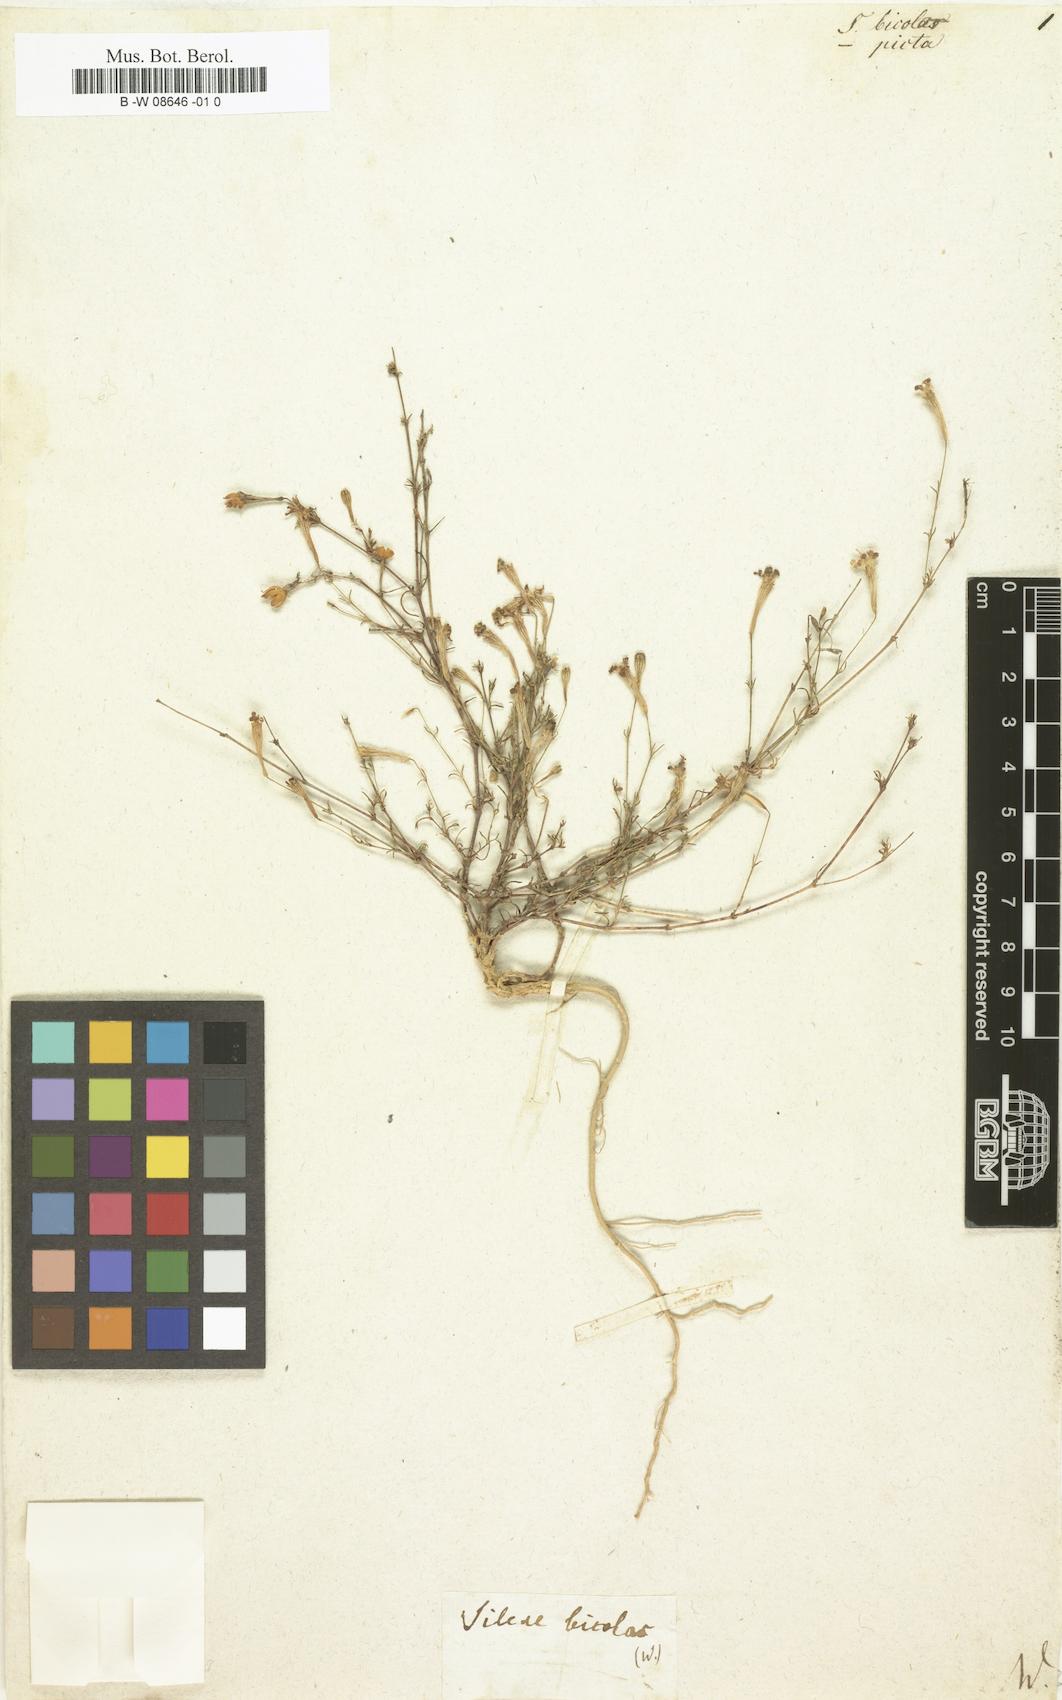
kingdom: Plantae
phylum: Tracheophyta
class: Magnoliopsida
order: Caryophyllales
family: Caryophyllaceae
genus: Silene
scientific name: Silene
